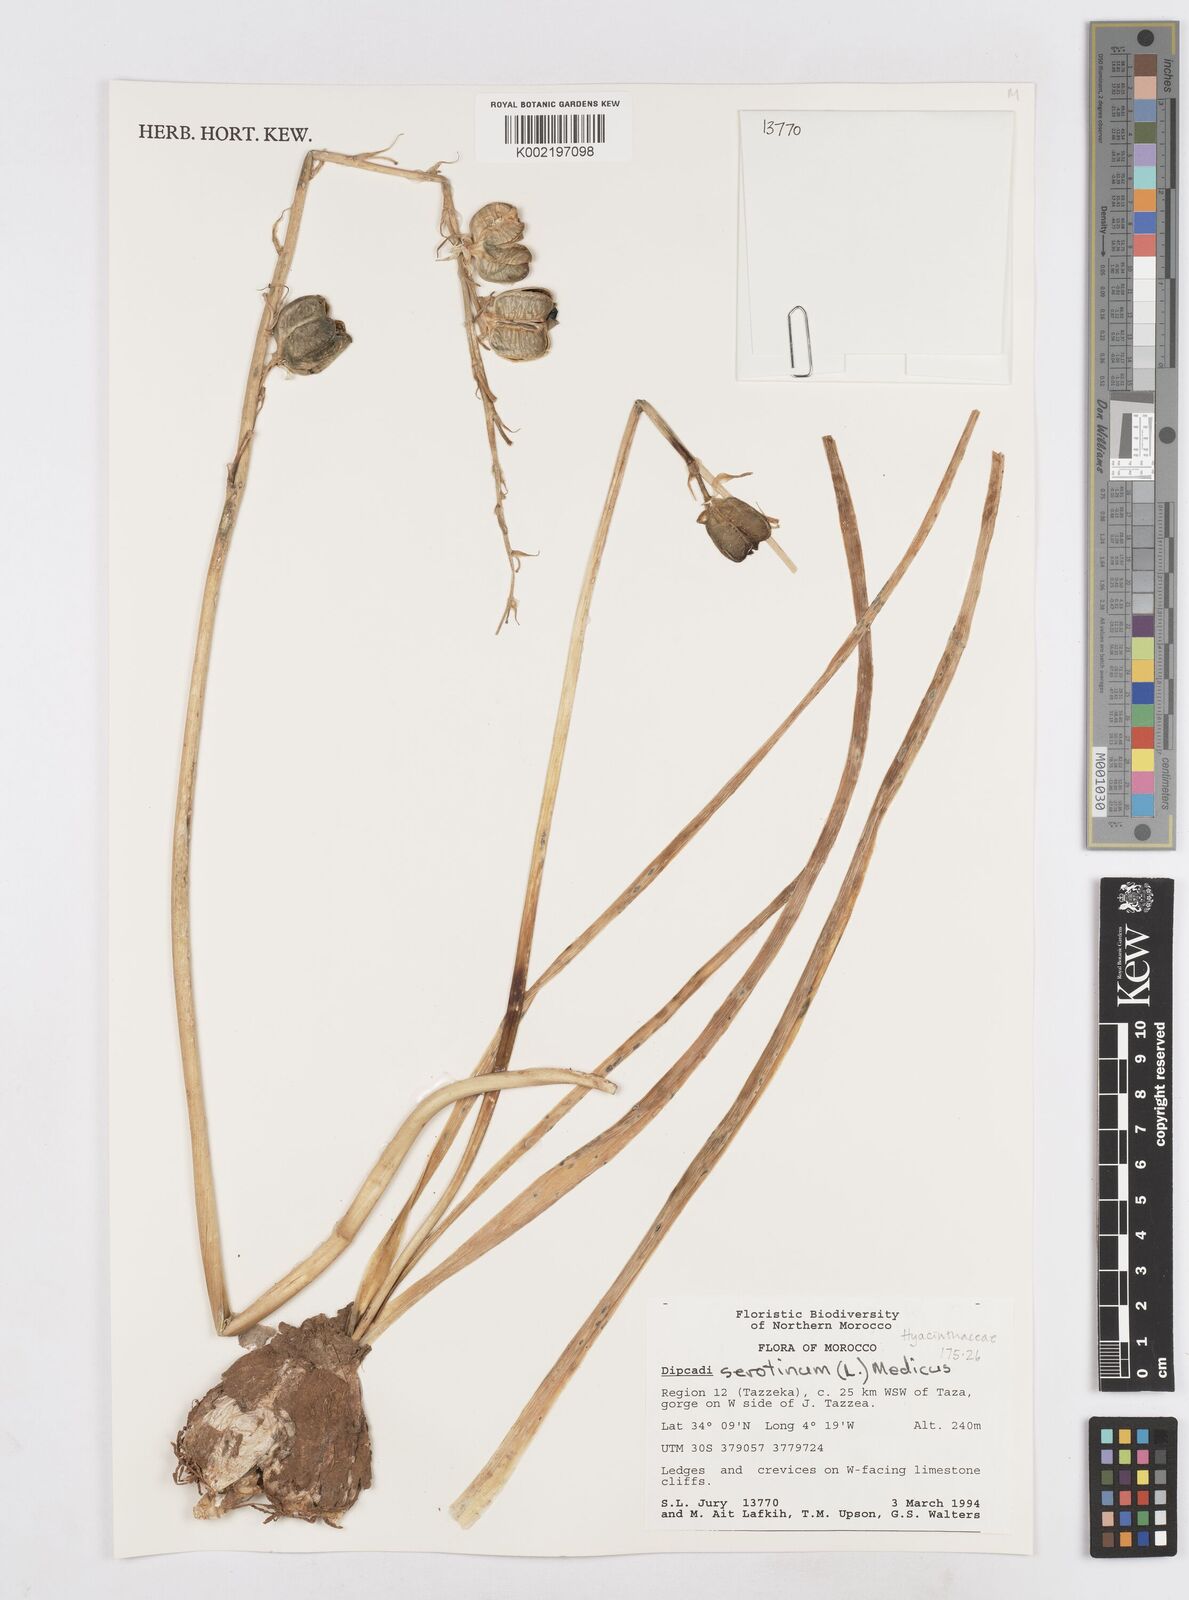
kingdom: Plantae
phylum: Tracheophyta
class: Liliopsida
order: Asparagales
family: Asparagaceae
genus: Dipcadi
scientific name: Dipcadi serotinum
